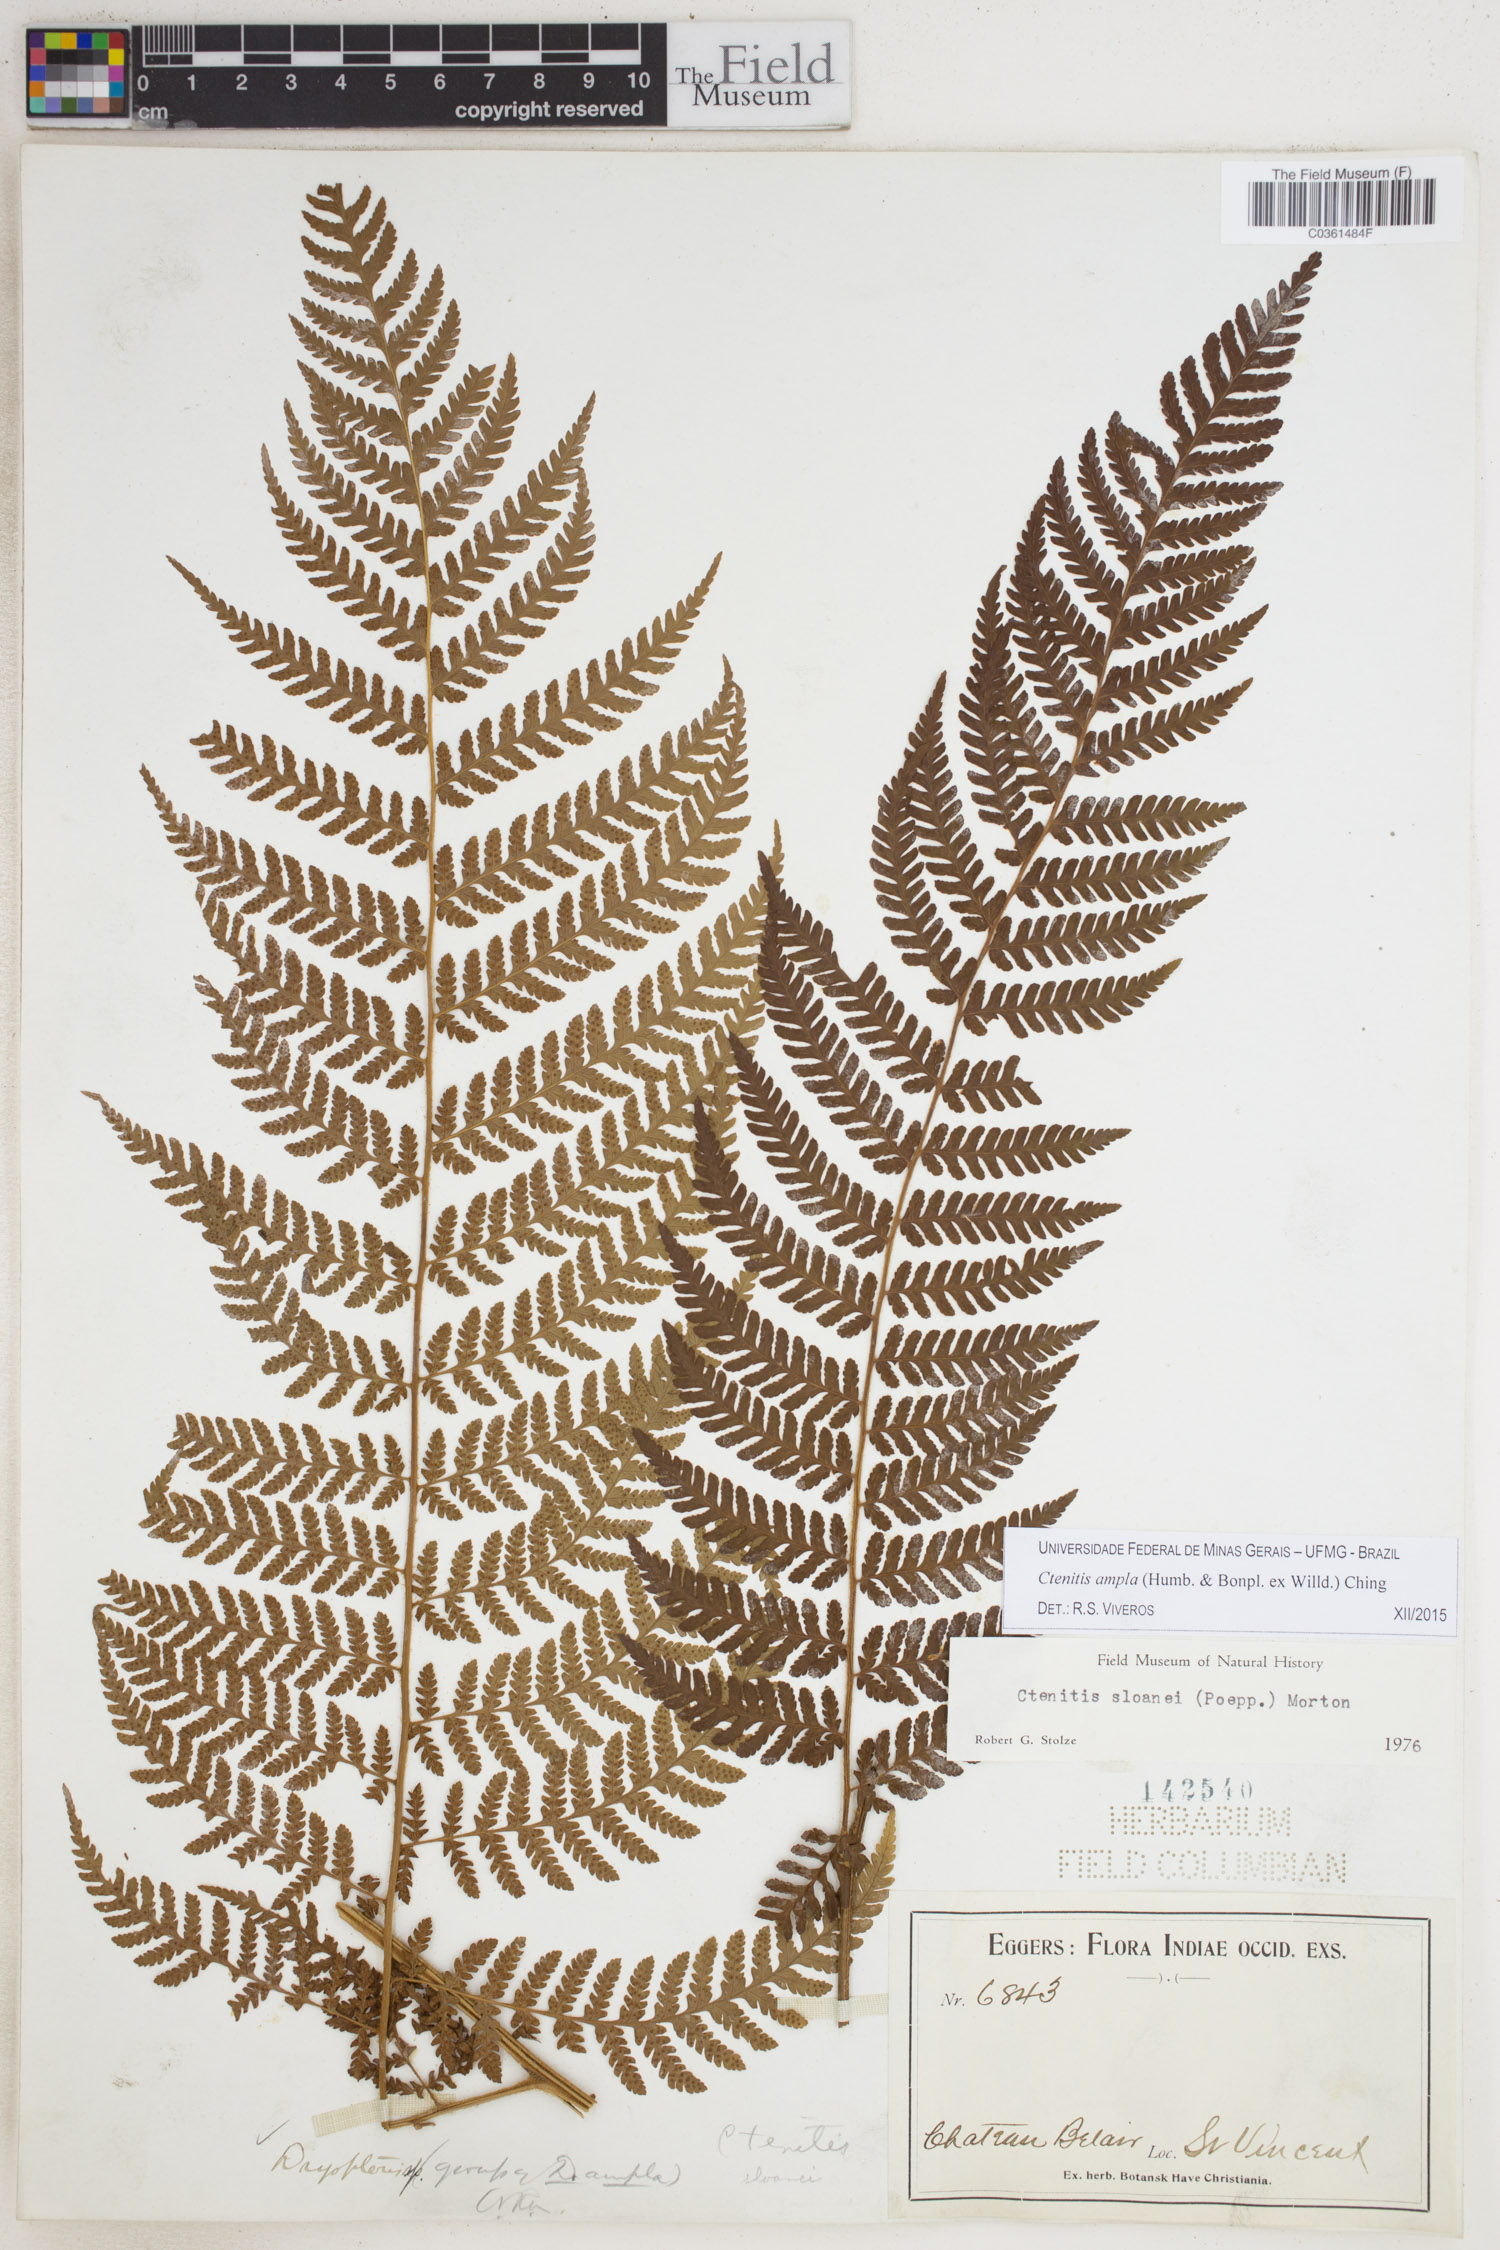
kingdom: Plantae
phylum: Tracheophyta
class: Polypodiopsida
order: Polypodiales
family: Dryopteridaceae
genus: Ctenitis
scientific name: Ctenitis sloanei
